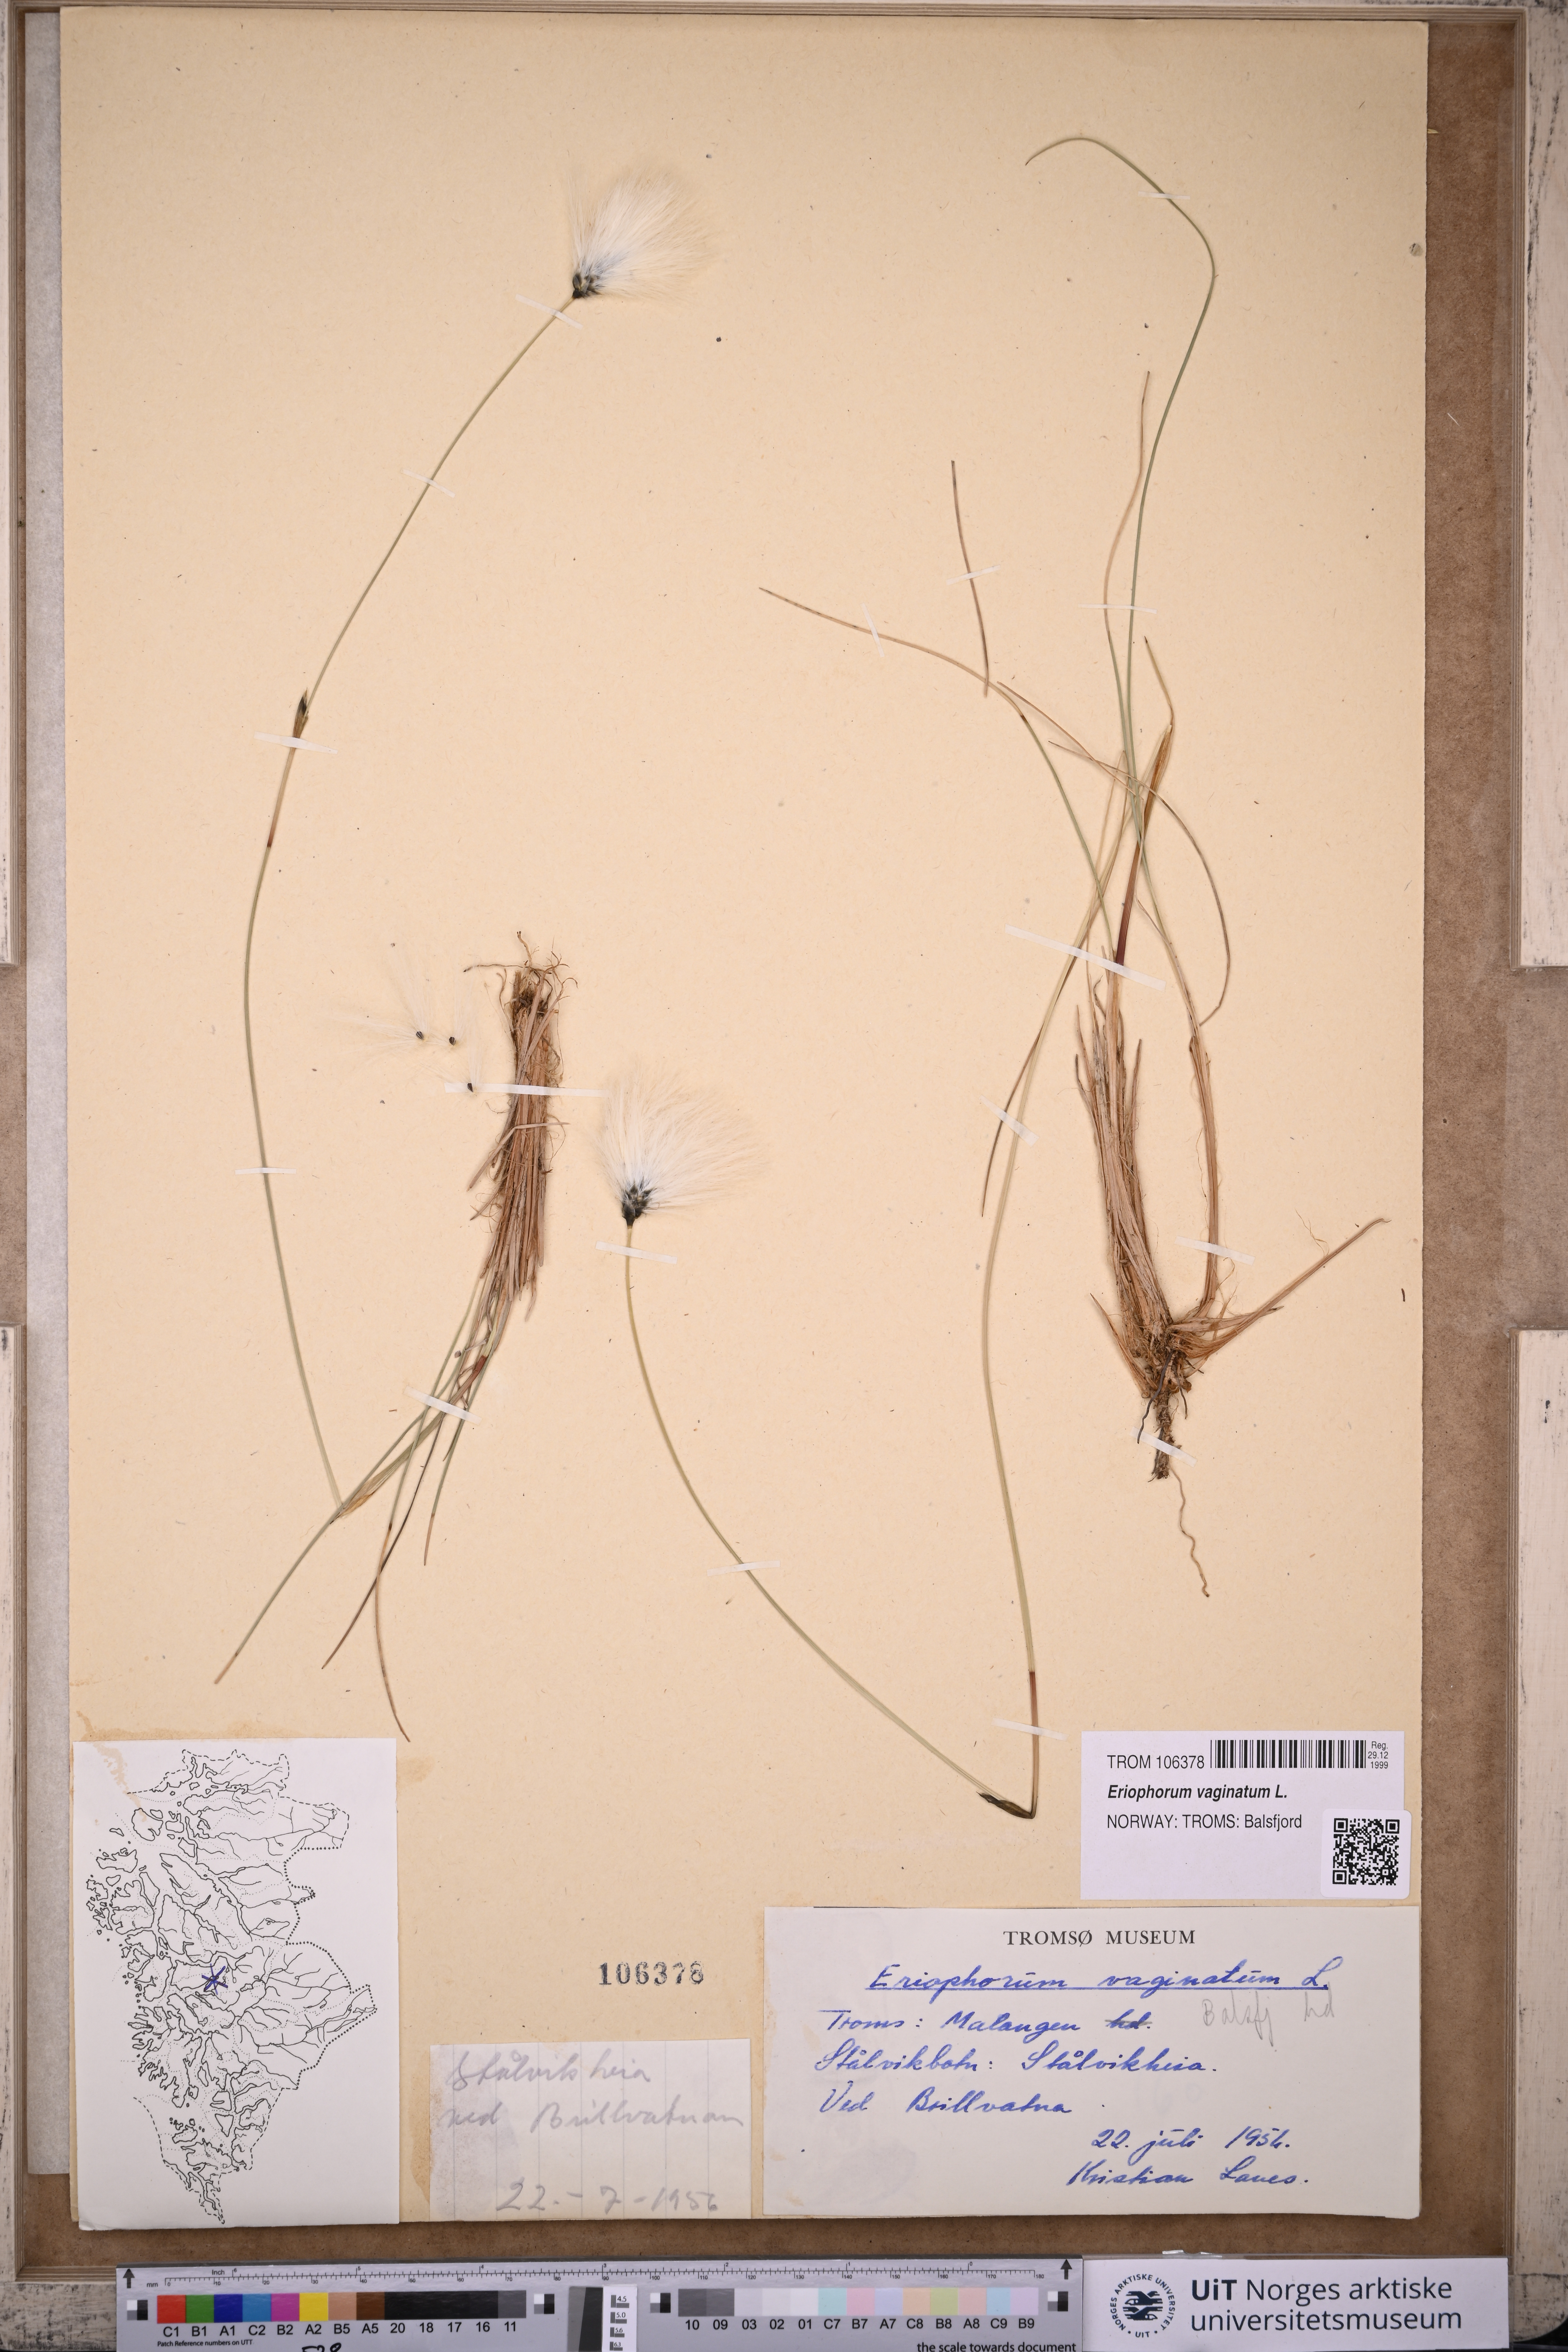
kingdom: Plantae
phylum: Tracheophyta
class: Liliopsida
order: Poales
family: Cyperaceae
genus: Eriophorum
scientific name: Eriophorum vaginatum
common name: Hare's-tail cottongrass
